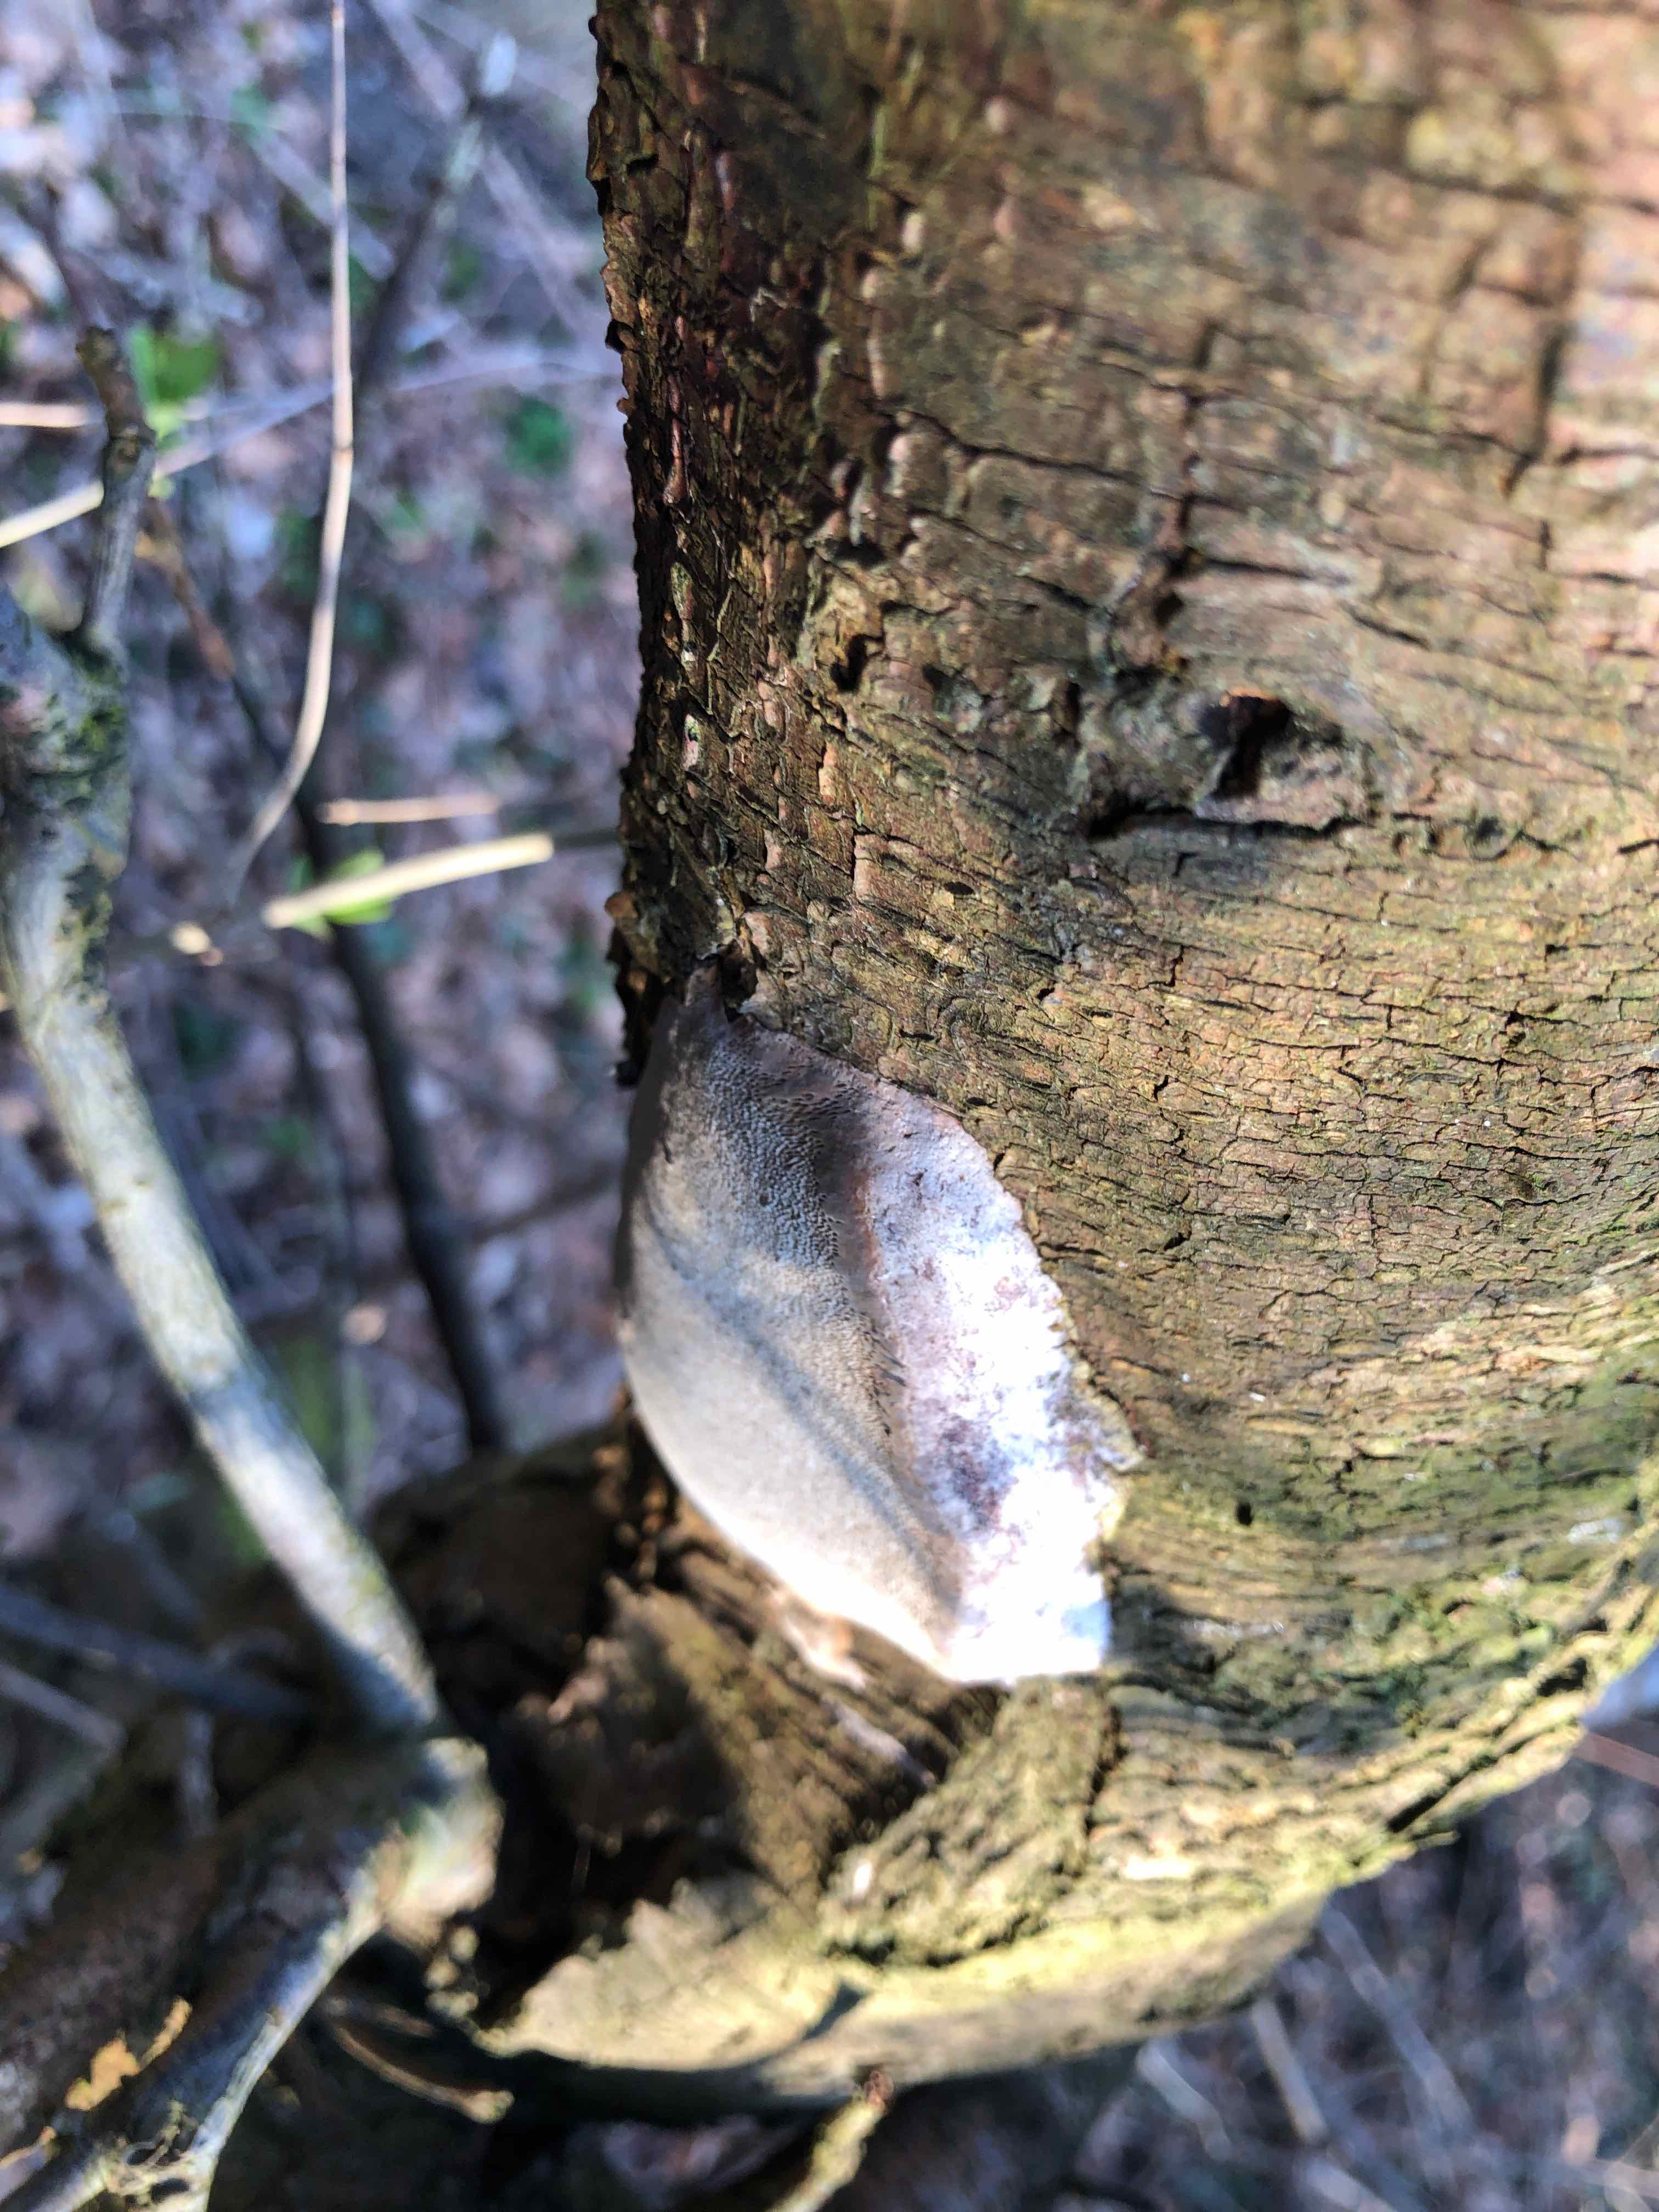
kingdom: Fungi
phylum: Basidiomycota
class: Agaricomycetes
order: Hymenochaetales
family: Hymenochaetaceae
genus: Phellinus
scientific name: Phellinus pomaceus
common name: blomme-ildporesvamp
